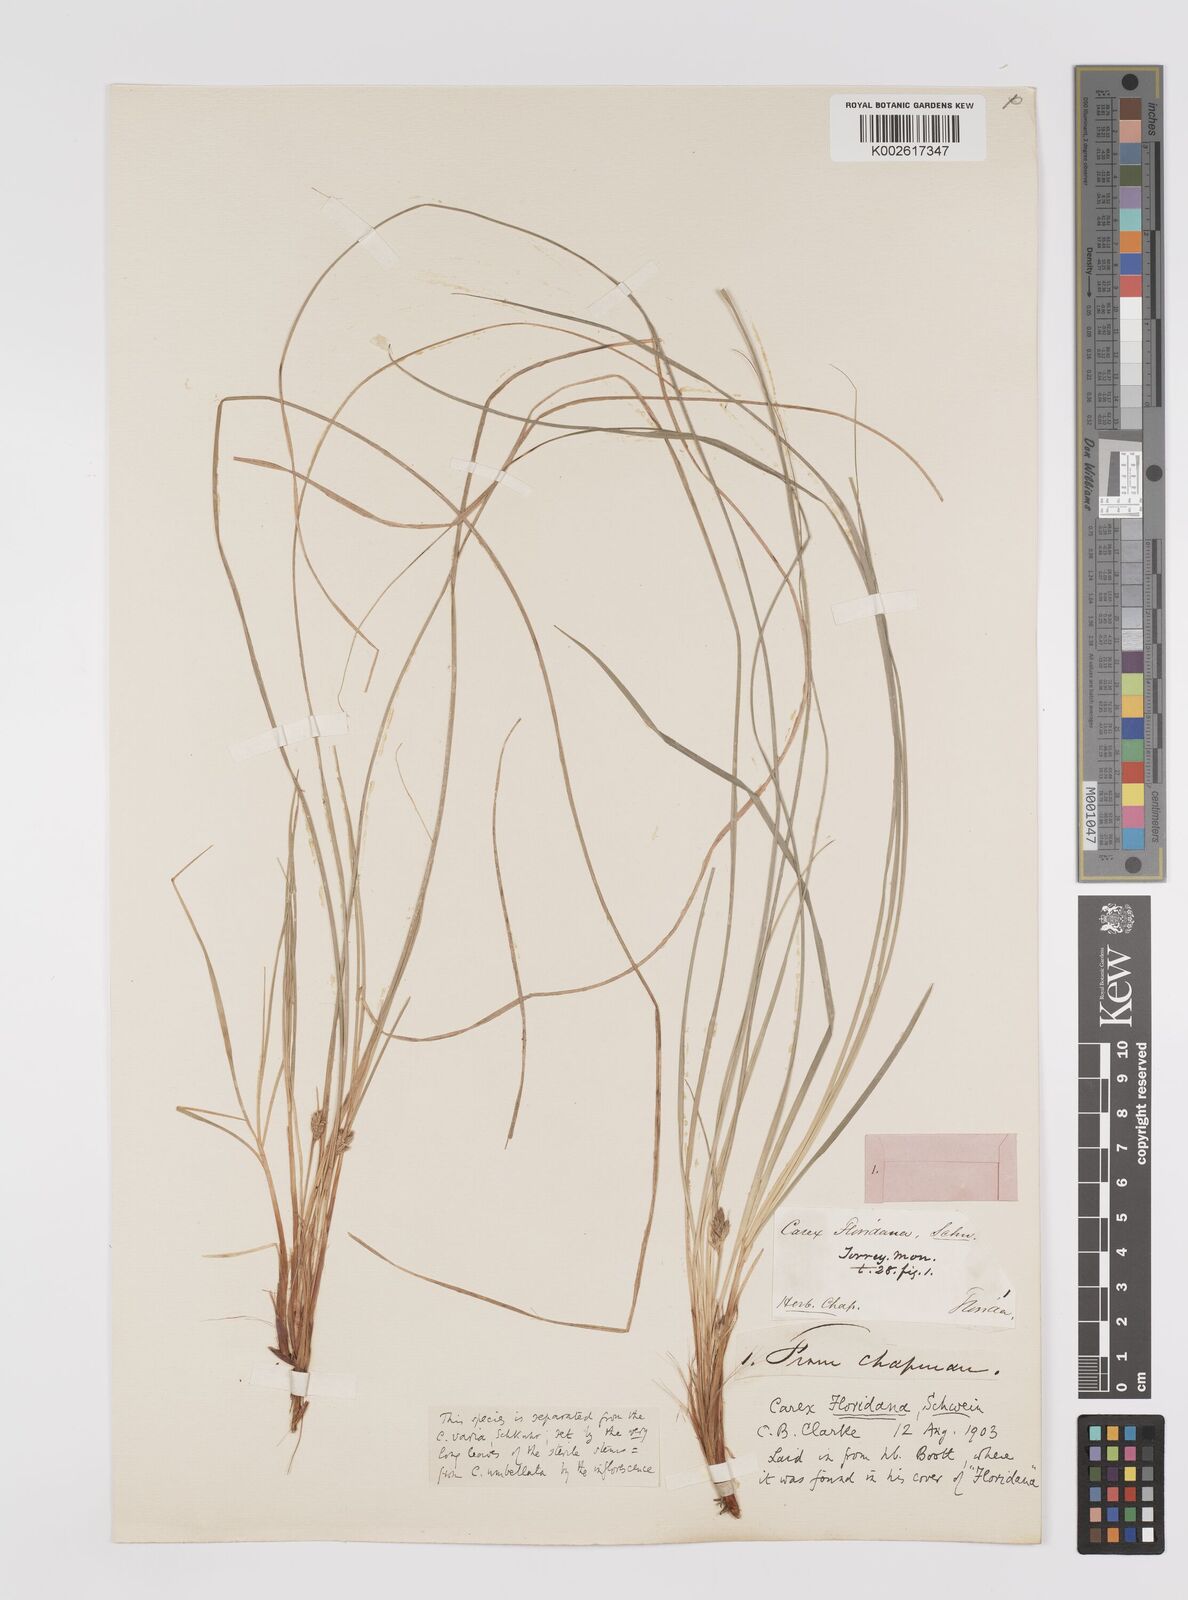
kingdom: Plantae
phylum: Tracheophyta
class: Liliopsida
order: Poales
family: Cyperaceae
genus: Carex
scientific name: Carex floridana
